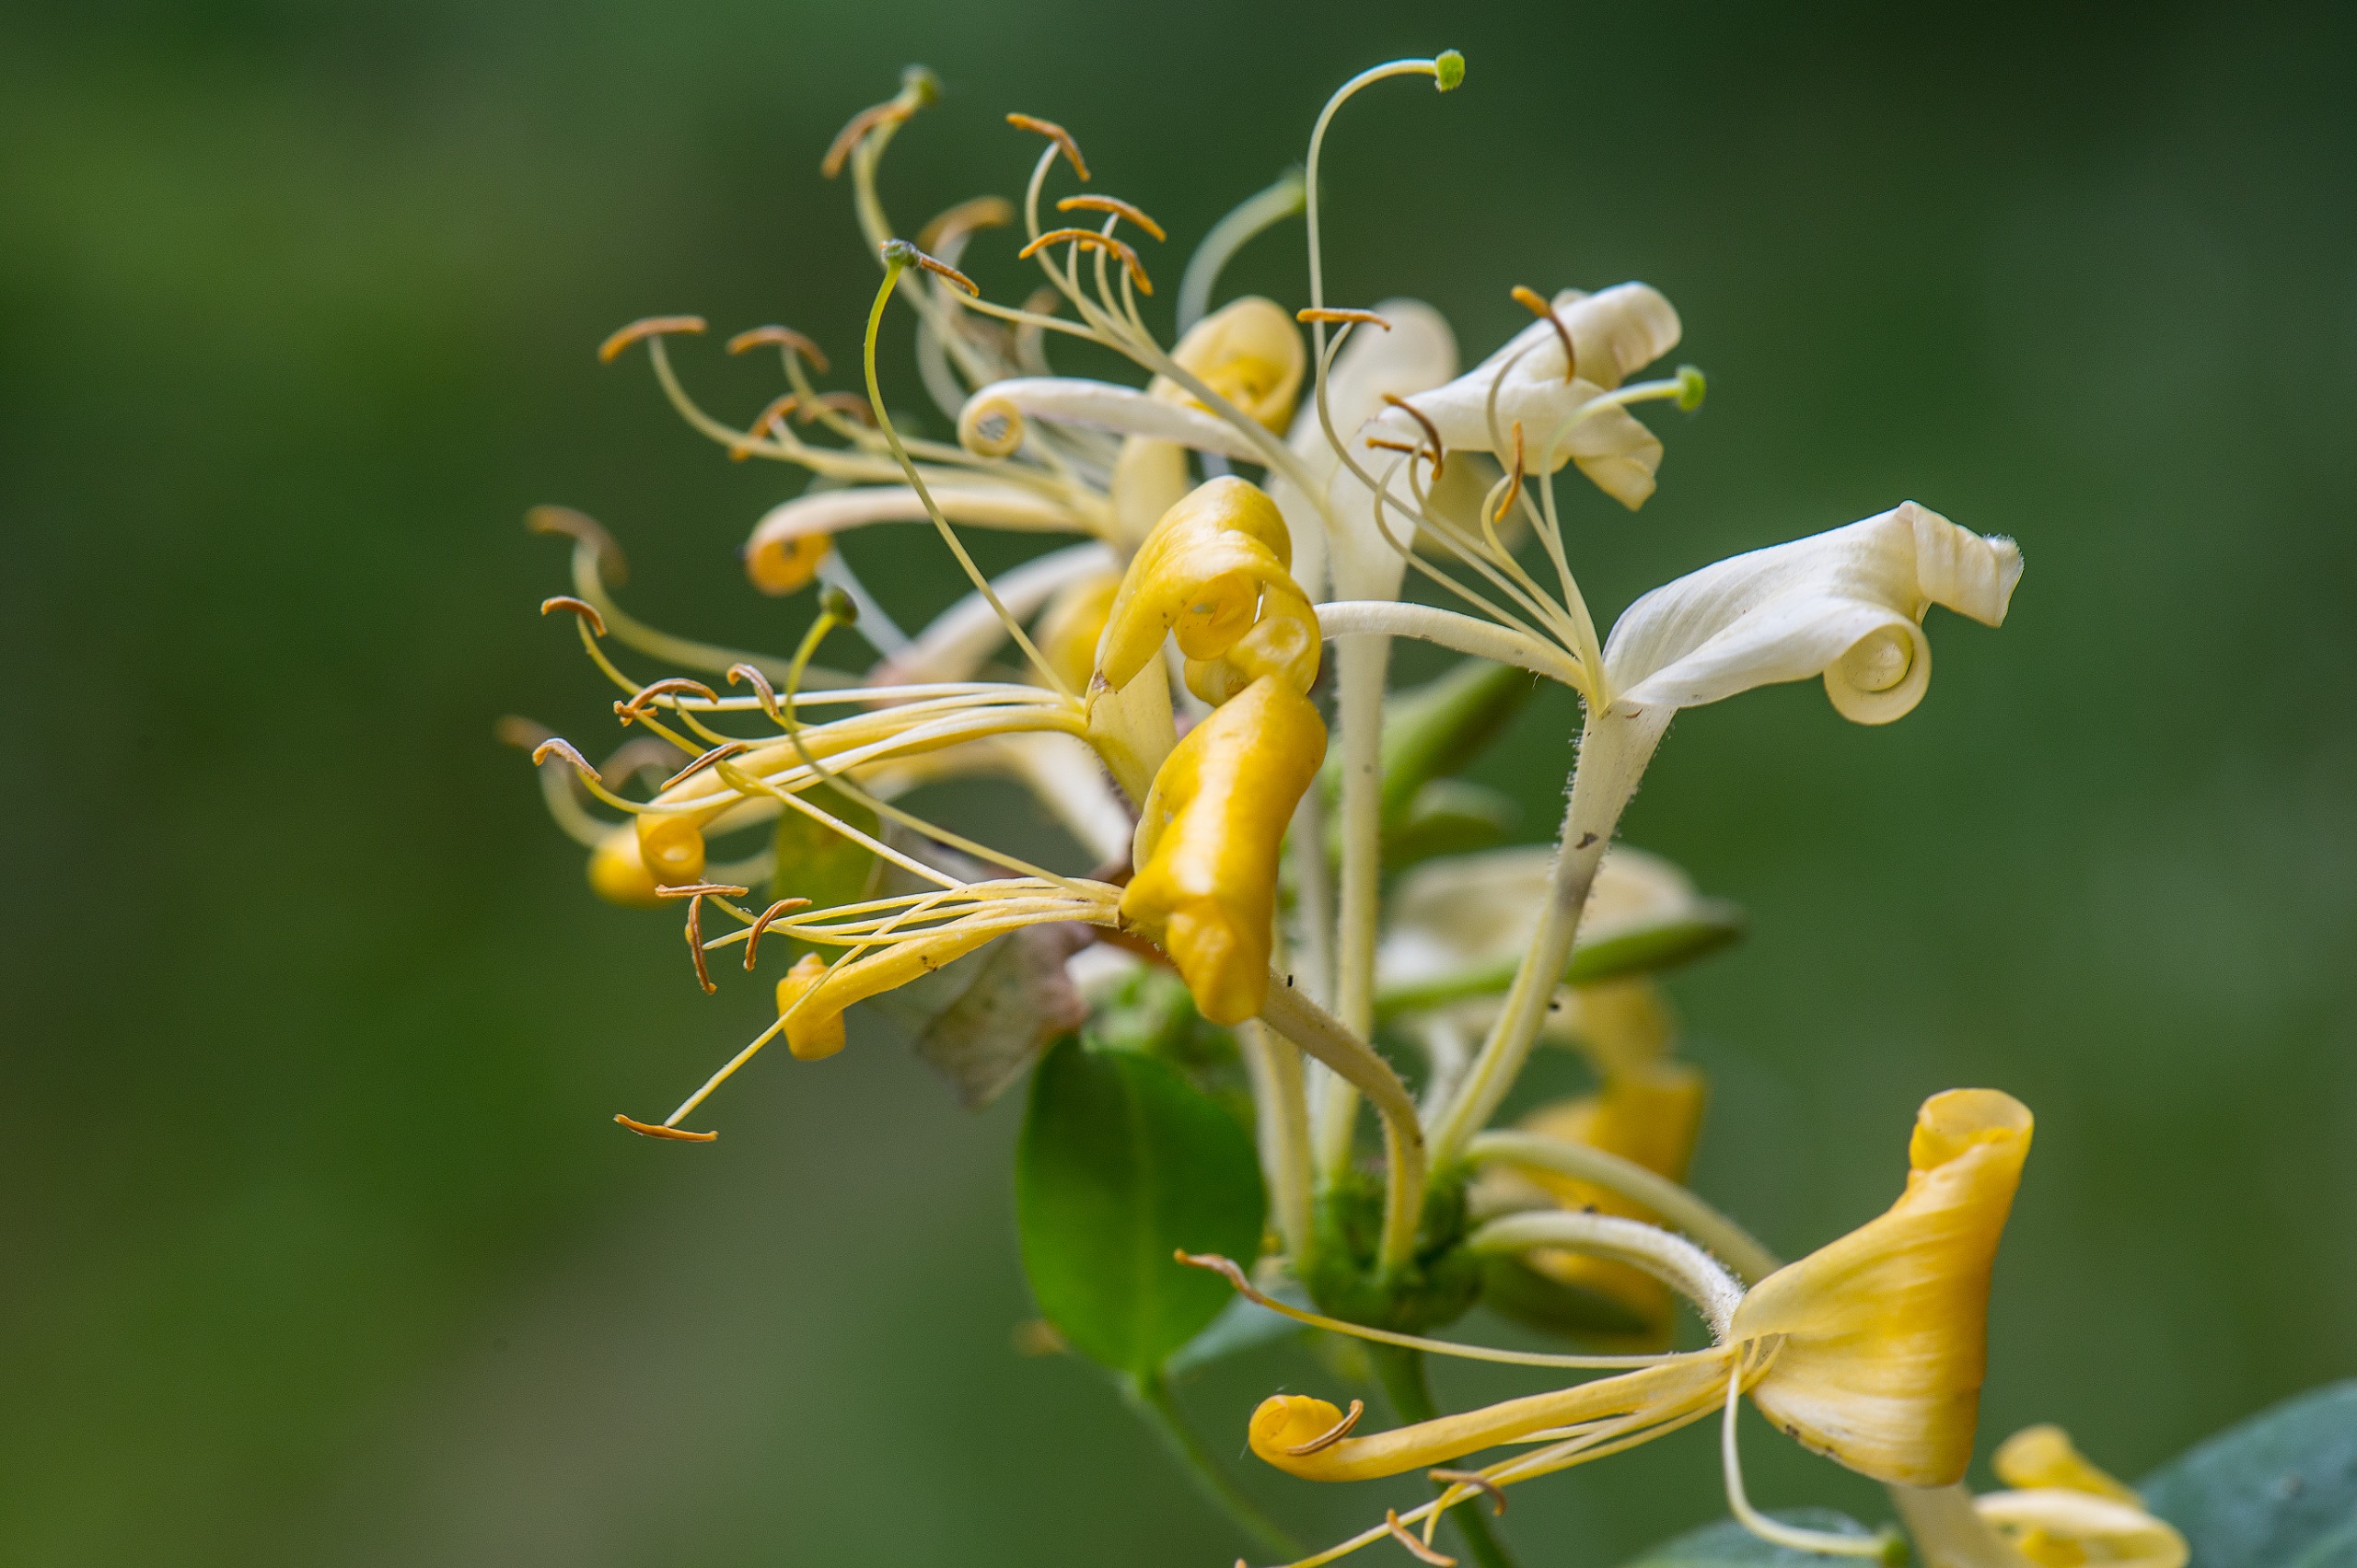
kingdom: Plantae
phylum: Tracheophyta
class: Magnoliopsida
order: Dipsacales
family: Caprifoliaceae
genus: Lonicera
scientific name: Lonicera periclymenum
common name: Almindelig gedeblad
